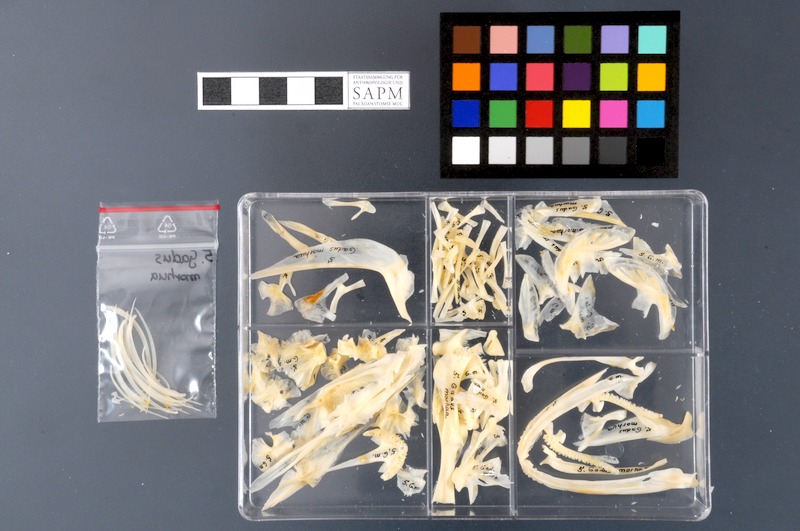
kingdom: Animalia
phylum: Chordata
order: Gadiformes
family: Gadidae
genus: Gadus
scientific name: Gadus morhua
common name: Atlantic cod
